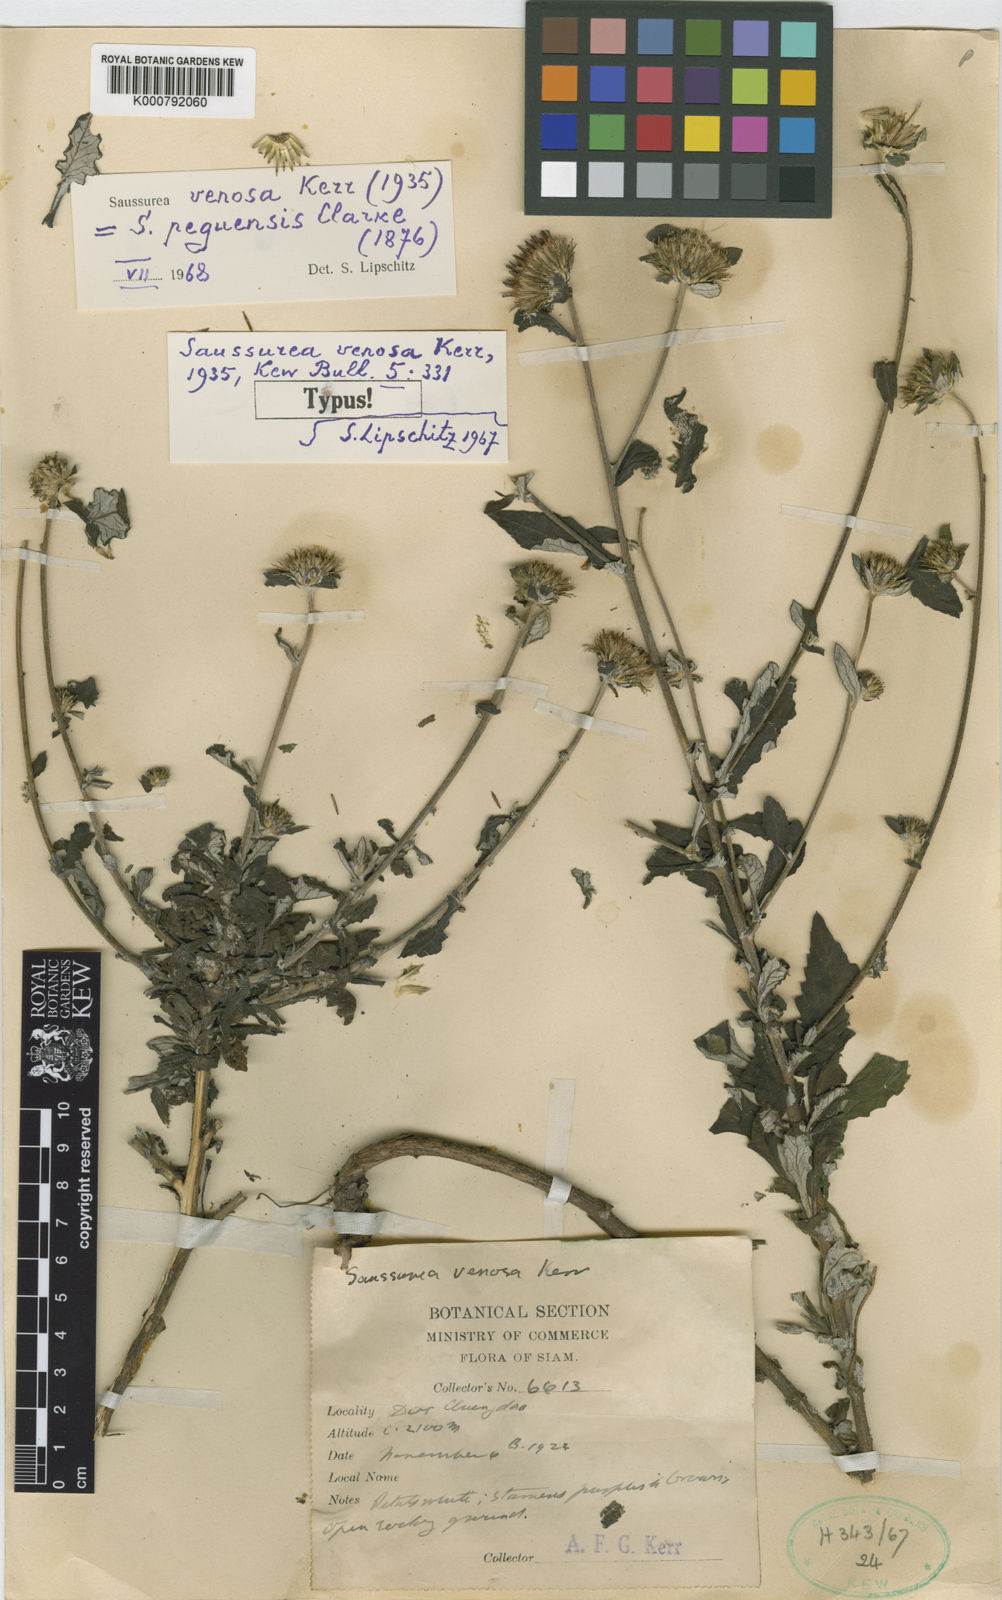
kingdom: Plantae
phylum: Tracheophyta
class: Magnoliopsida
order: Asterales
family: Asteraceae
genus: Jurinea
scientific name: Jurinea peguensis
